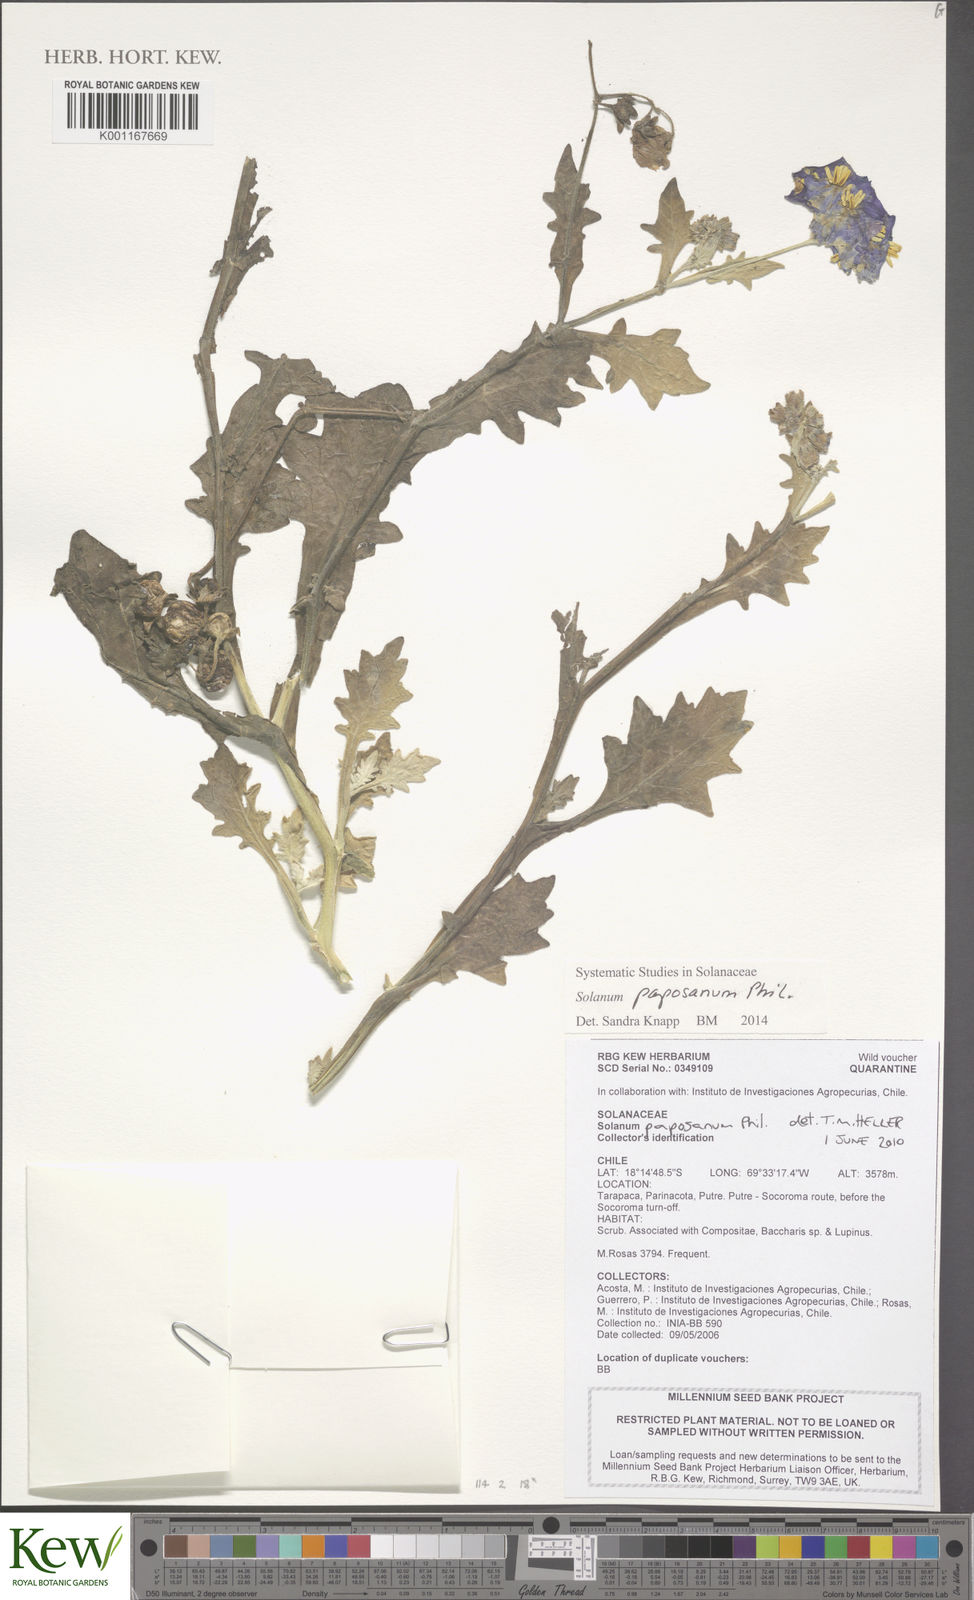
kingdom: Plantae
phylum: Tracheophyta
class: Magnoliopsida
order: Solanales
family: Solanaceae
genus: Solanum
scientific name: Solanum paposanum
